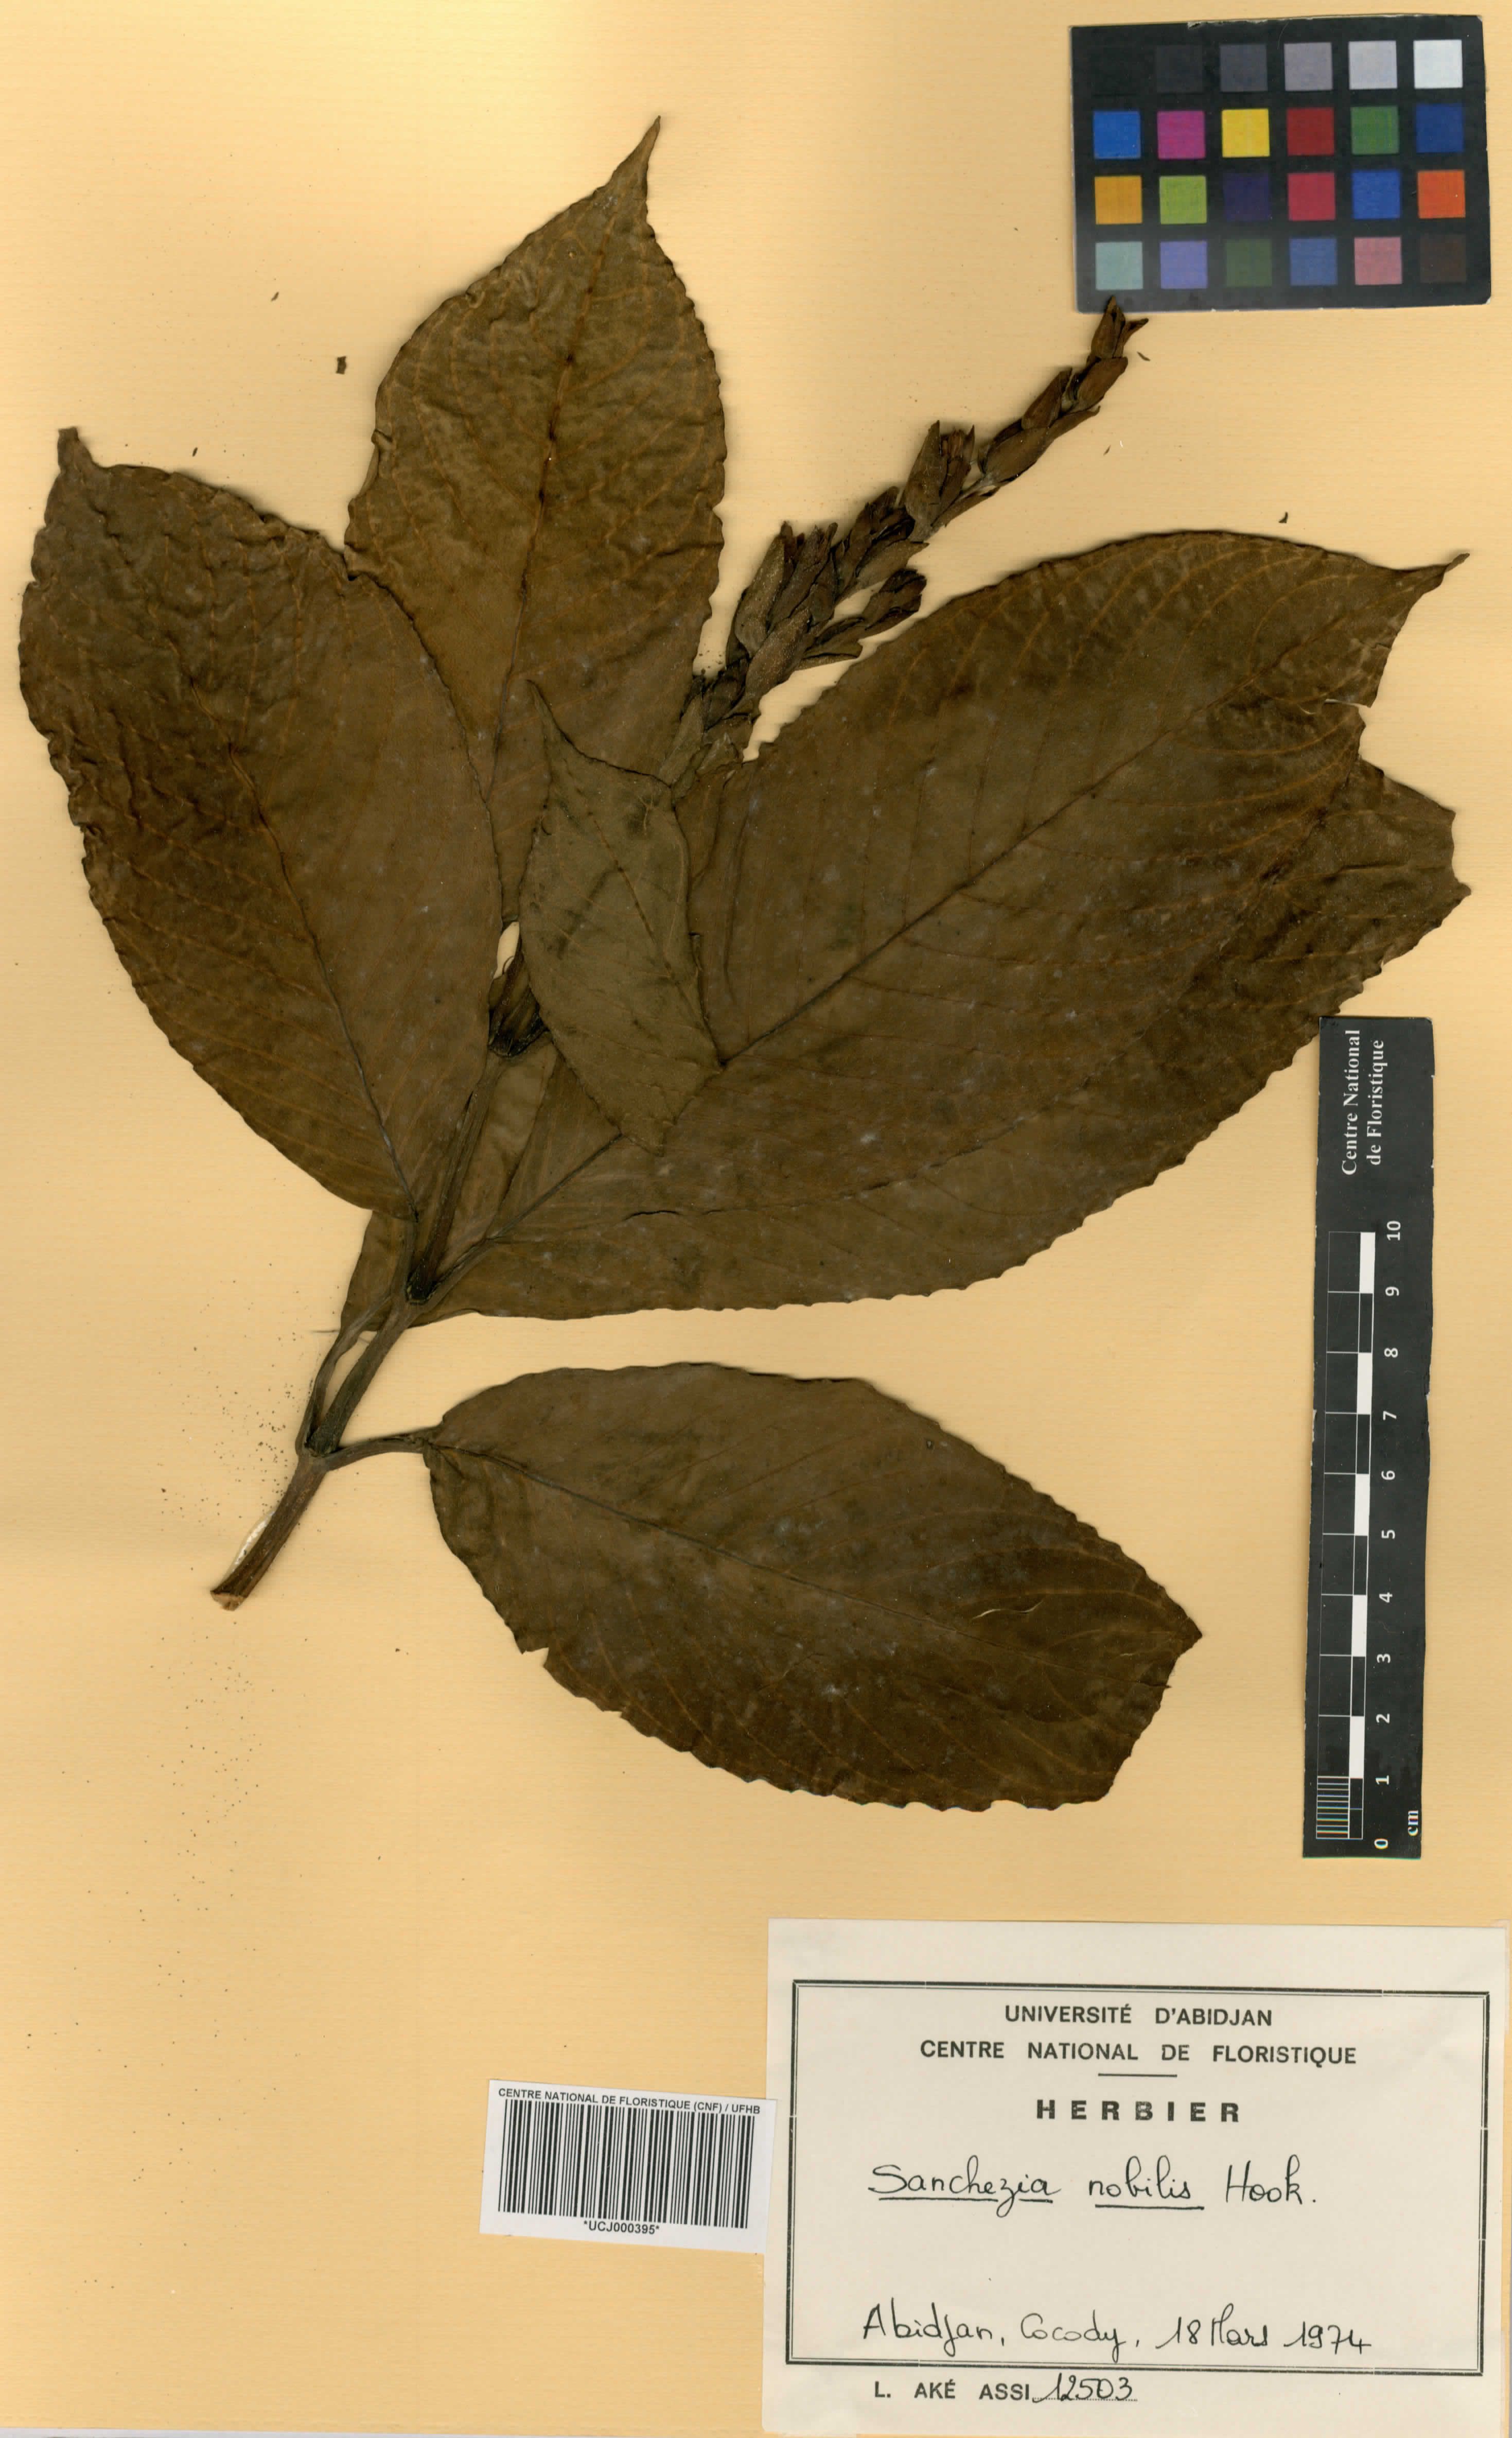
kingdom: Plantae
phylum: Tracheophyta
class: Magnoliopsida
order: Lamiales
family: Acanthaceae
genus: Sanchezia
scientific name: Sanchezia oblonga
